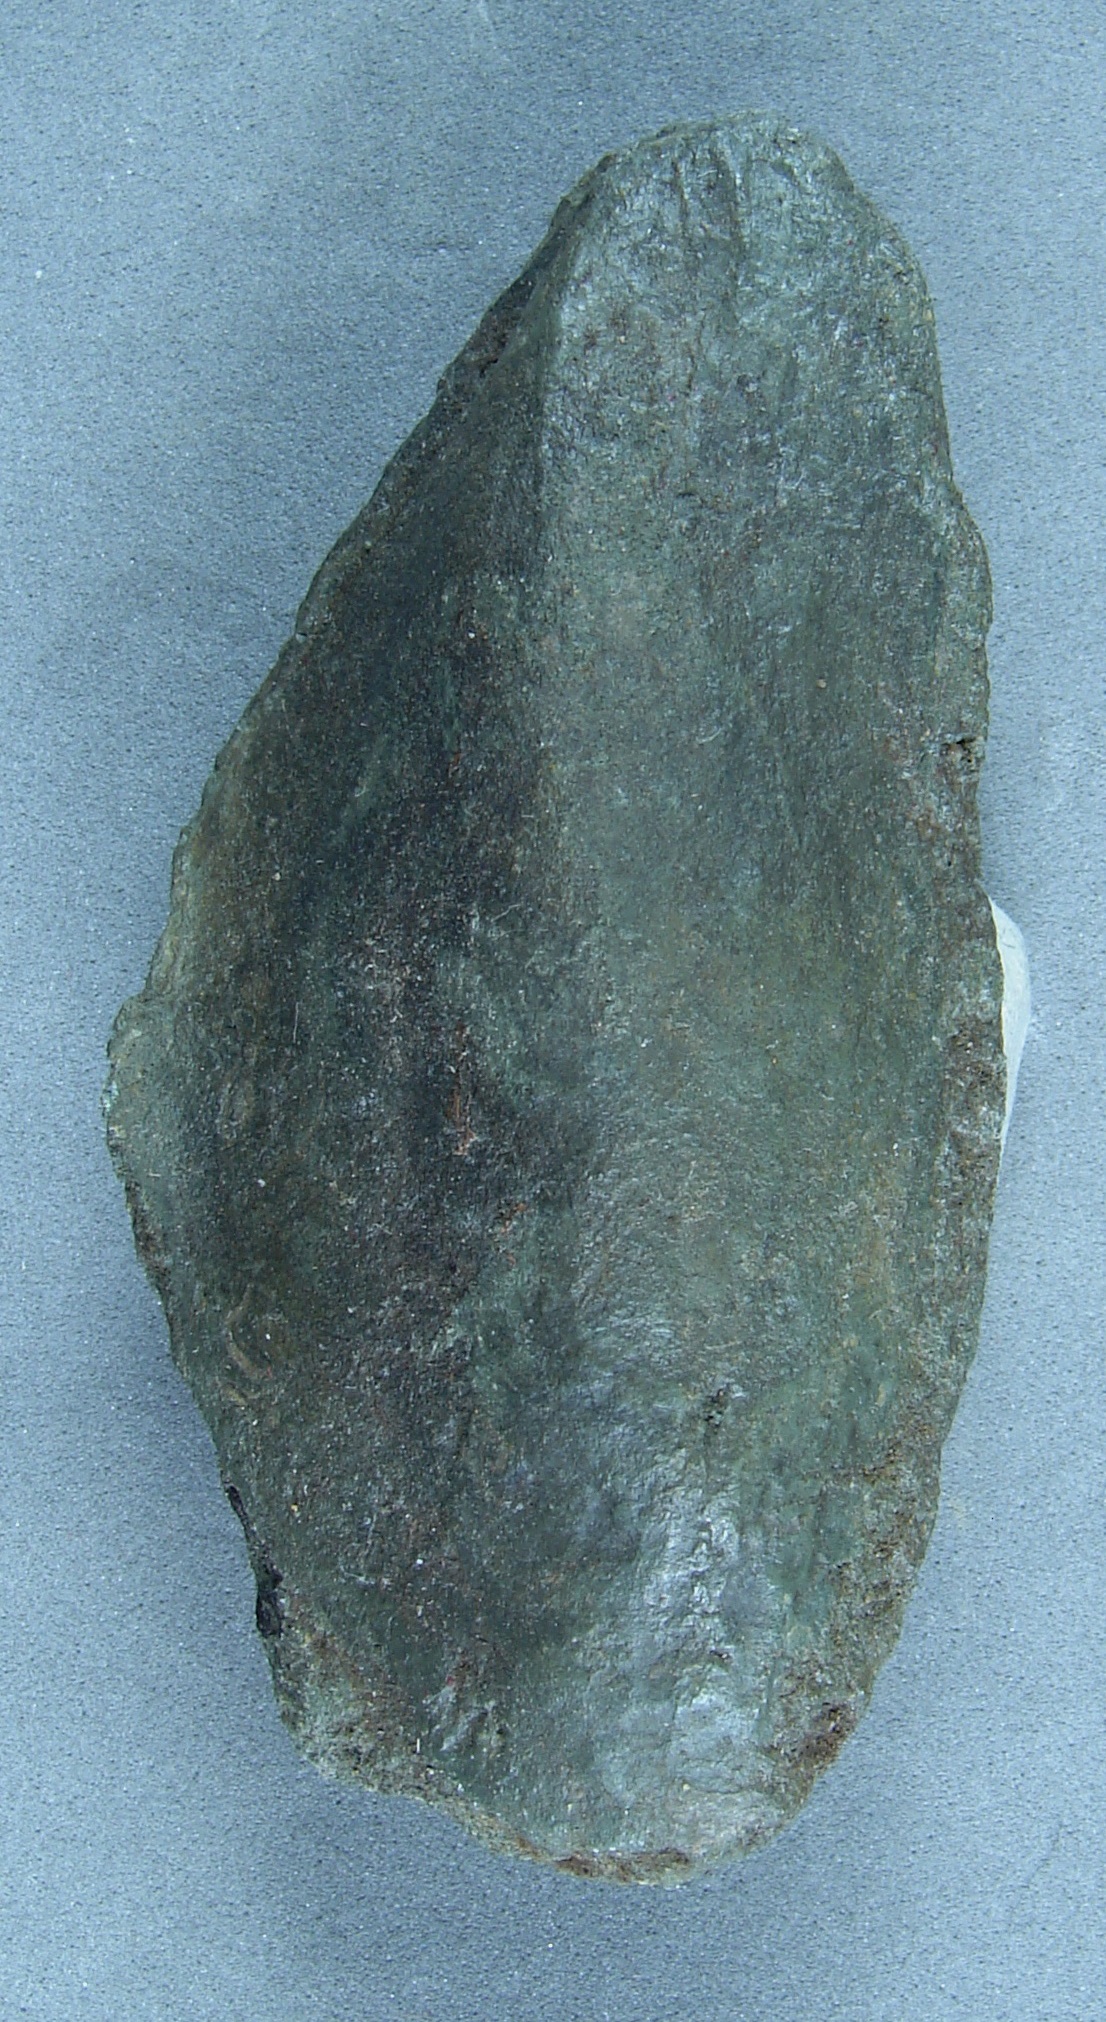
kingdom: Animalia
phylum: Mollusca
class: Bivalvia
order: Mytilida
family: Mytilidae
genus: Modiolus
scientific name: Modiolus
